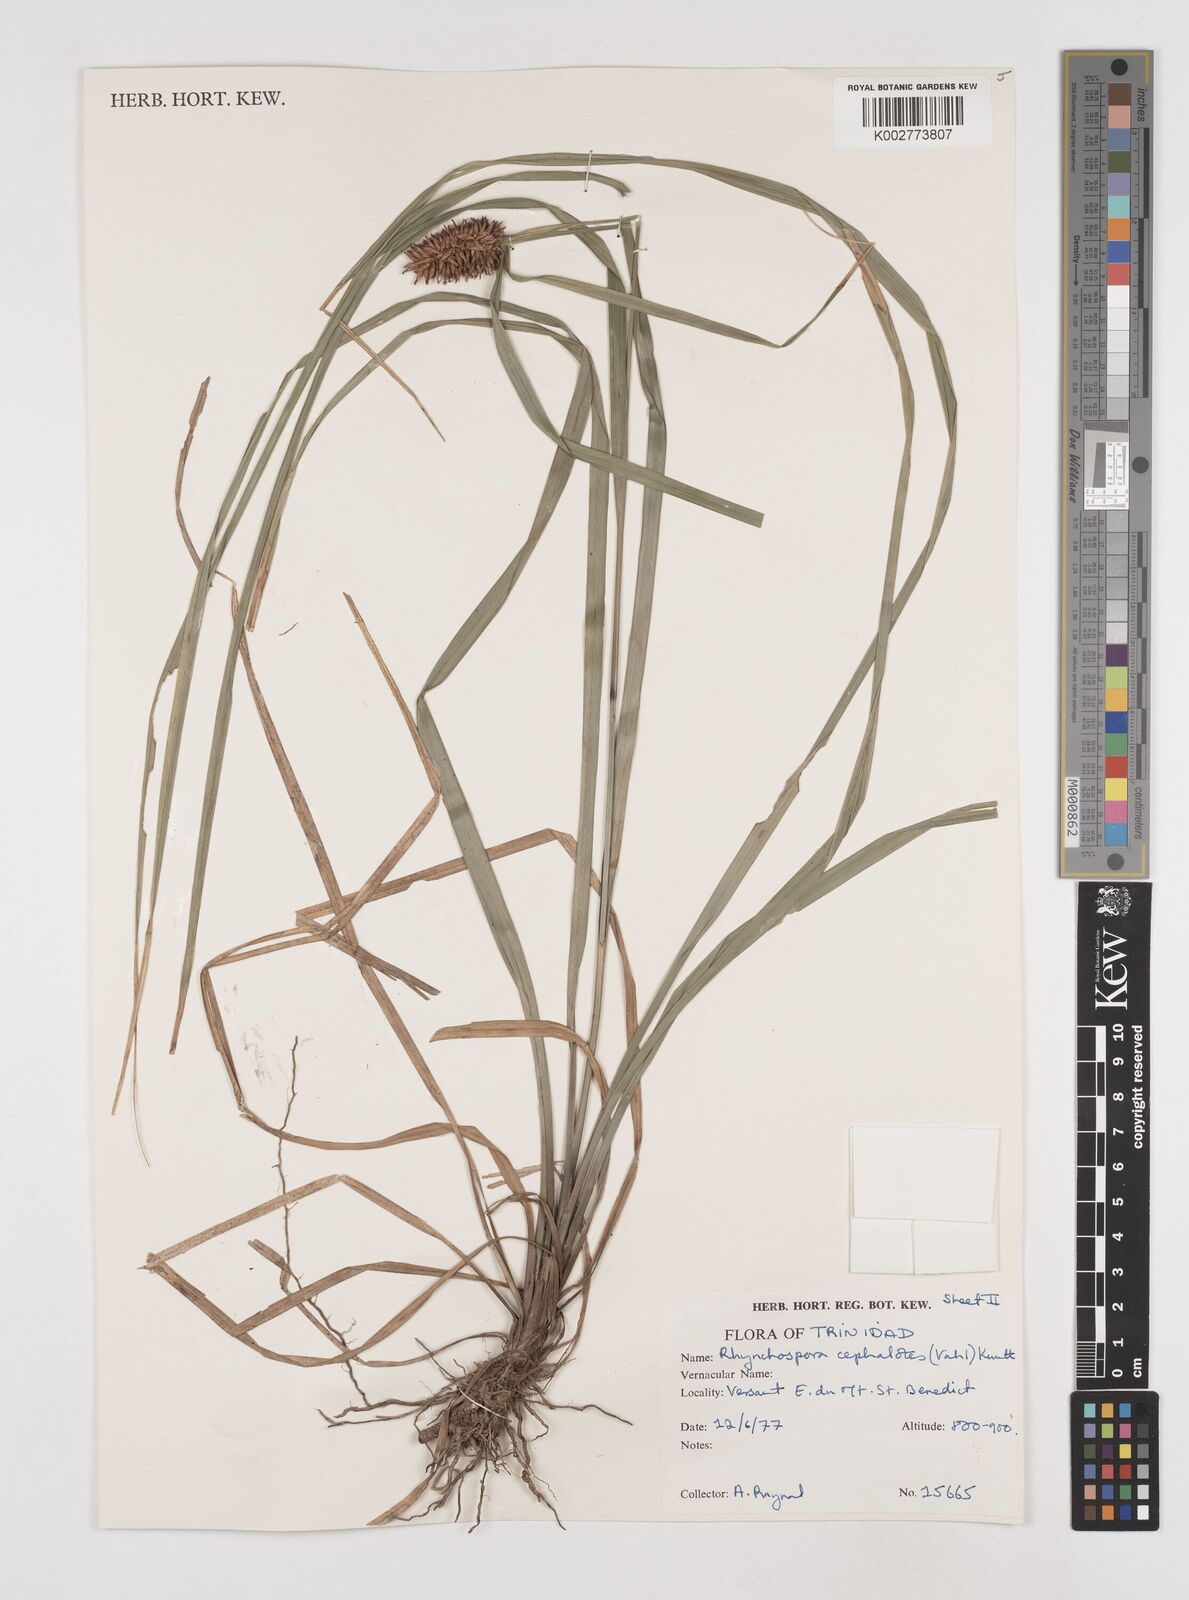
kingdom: Plantae
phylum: Tracheophyta
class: Liliopsida
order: Poales
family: Cyperaceae
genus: Rhynchospora
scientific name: Rhynchospora cephalotes
